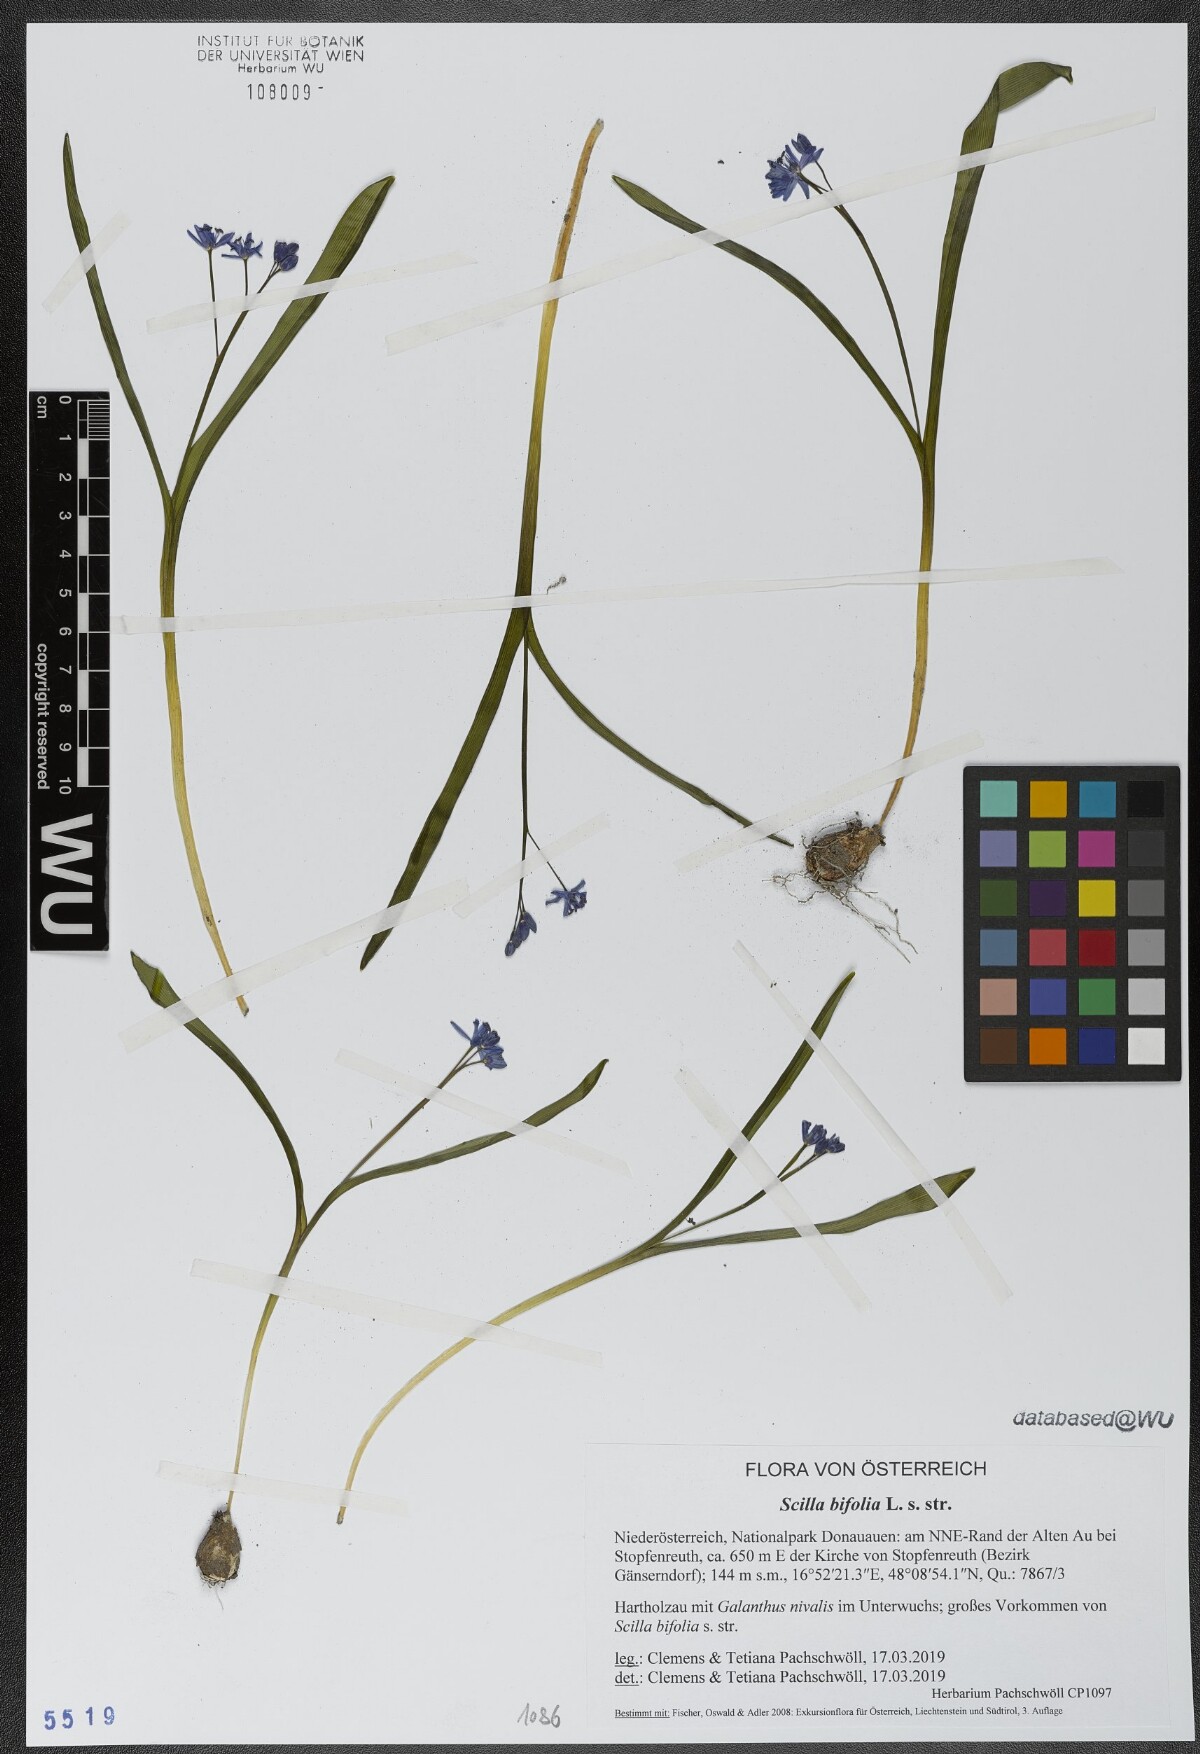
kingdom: Plantae
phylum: Tracheophyta
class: Liliopsida
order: Asparagales
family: Asparagaceae
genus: Scilla
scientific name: Scilla bifolia
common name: Alpine squill
